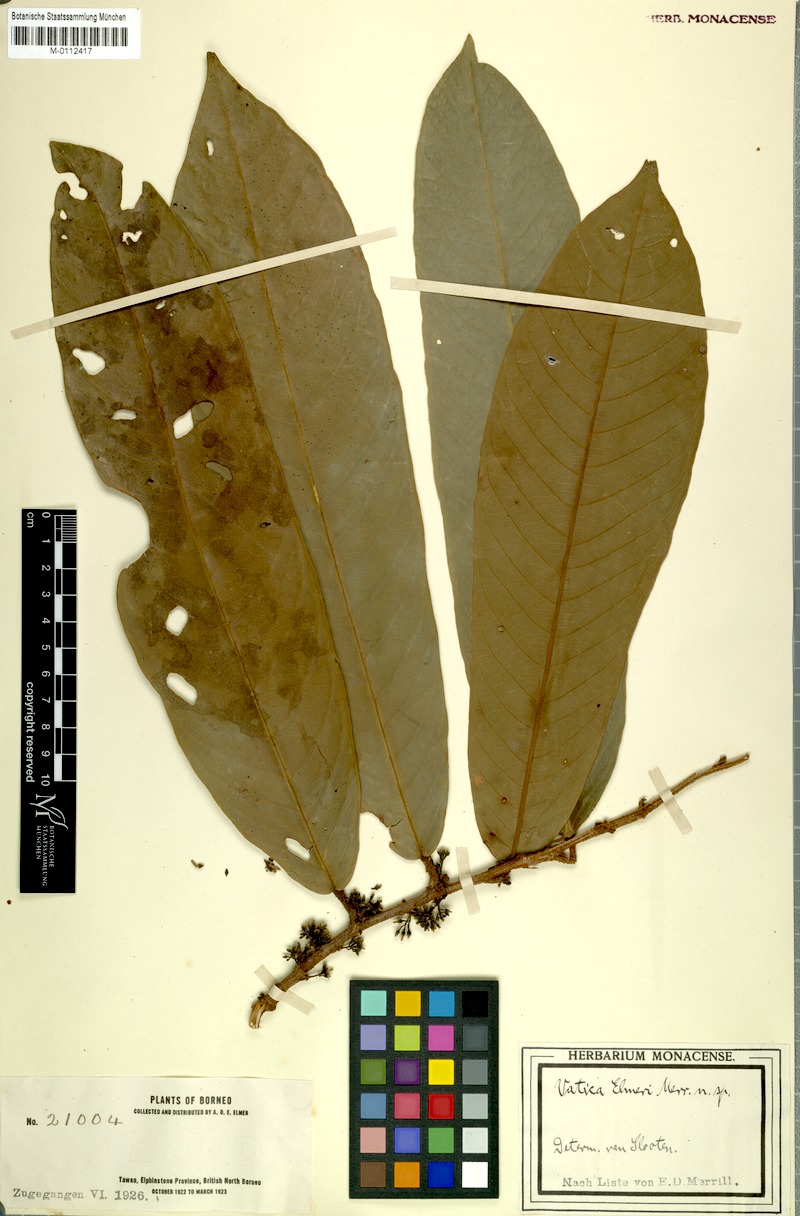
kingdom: Plantae
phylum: Tracheophyta
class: Magnoliopsida
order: Malvales
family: Dipterocarpaceae
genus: Vatica
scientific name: Vatica
